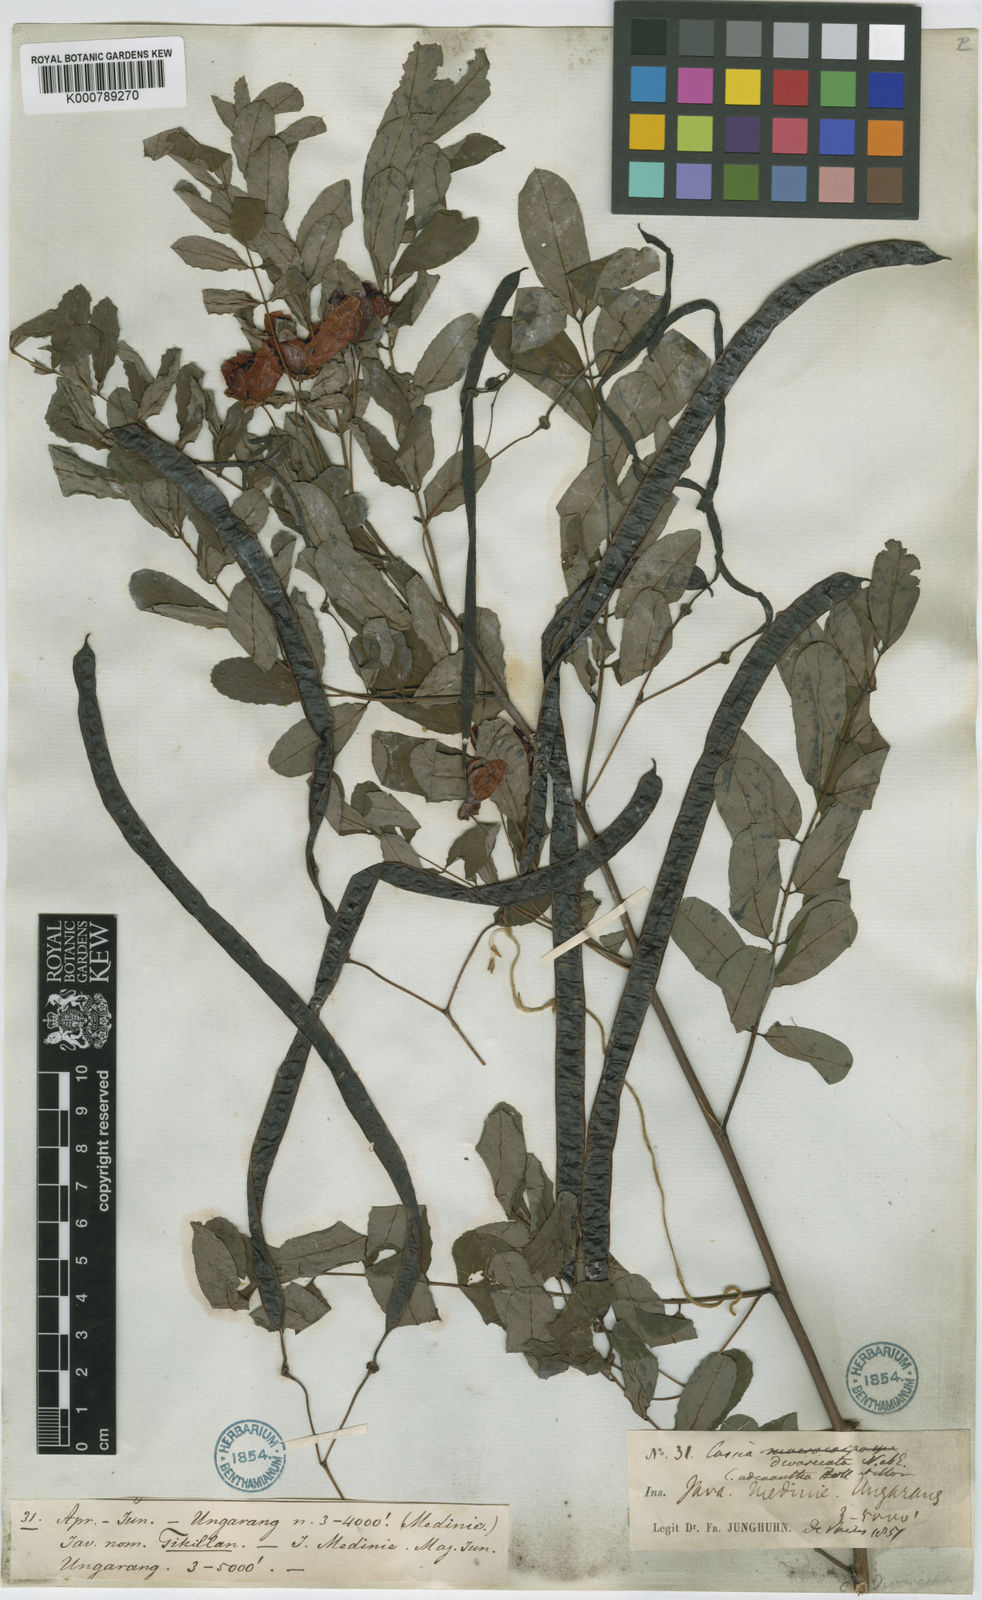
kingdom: Plantae
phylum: Tracheophyta
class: Magnoliopsida
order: Fabales
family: Fabaceae
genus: Senna
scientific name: Senna divaricata
